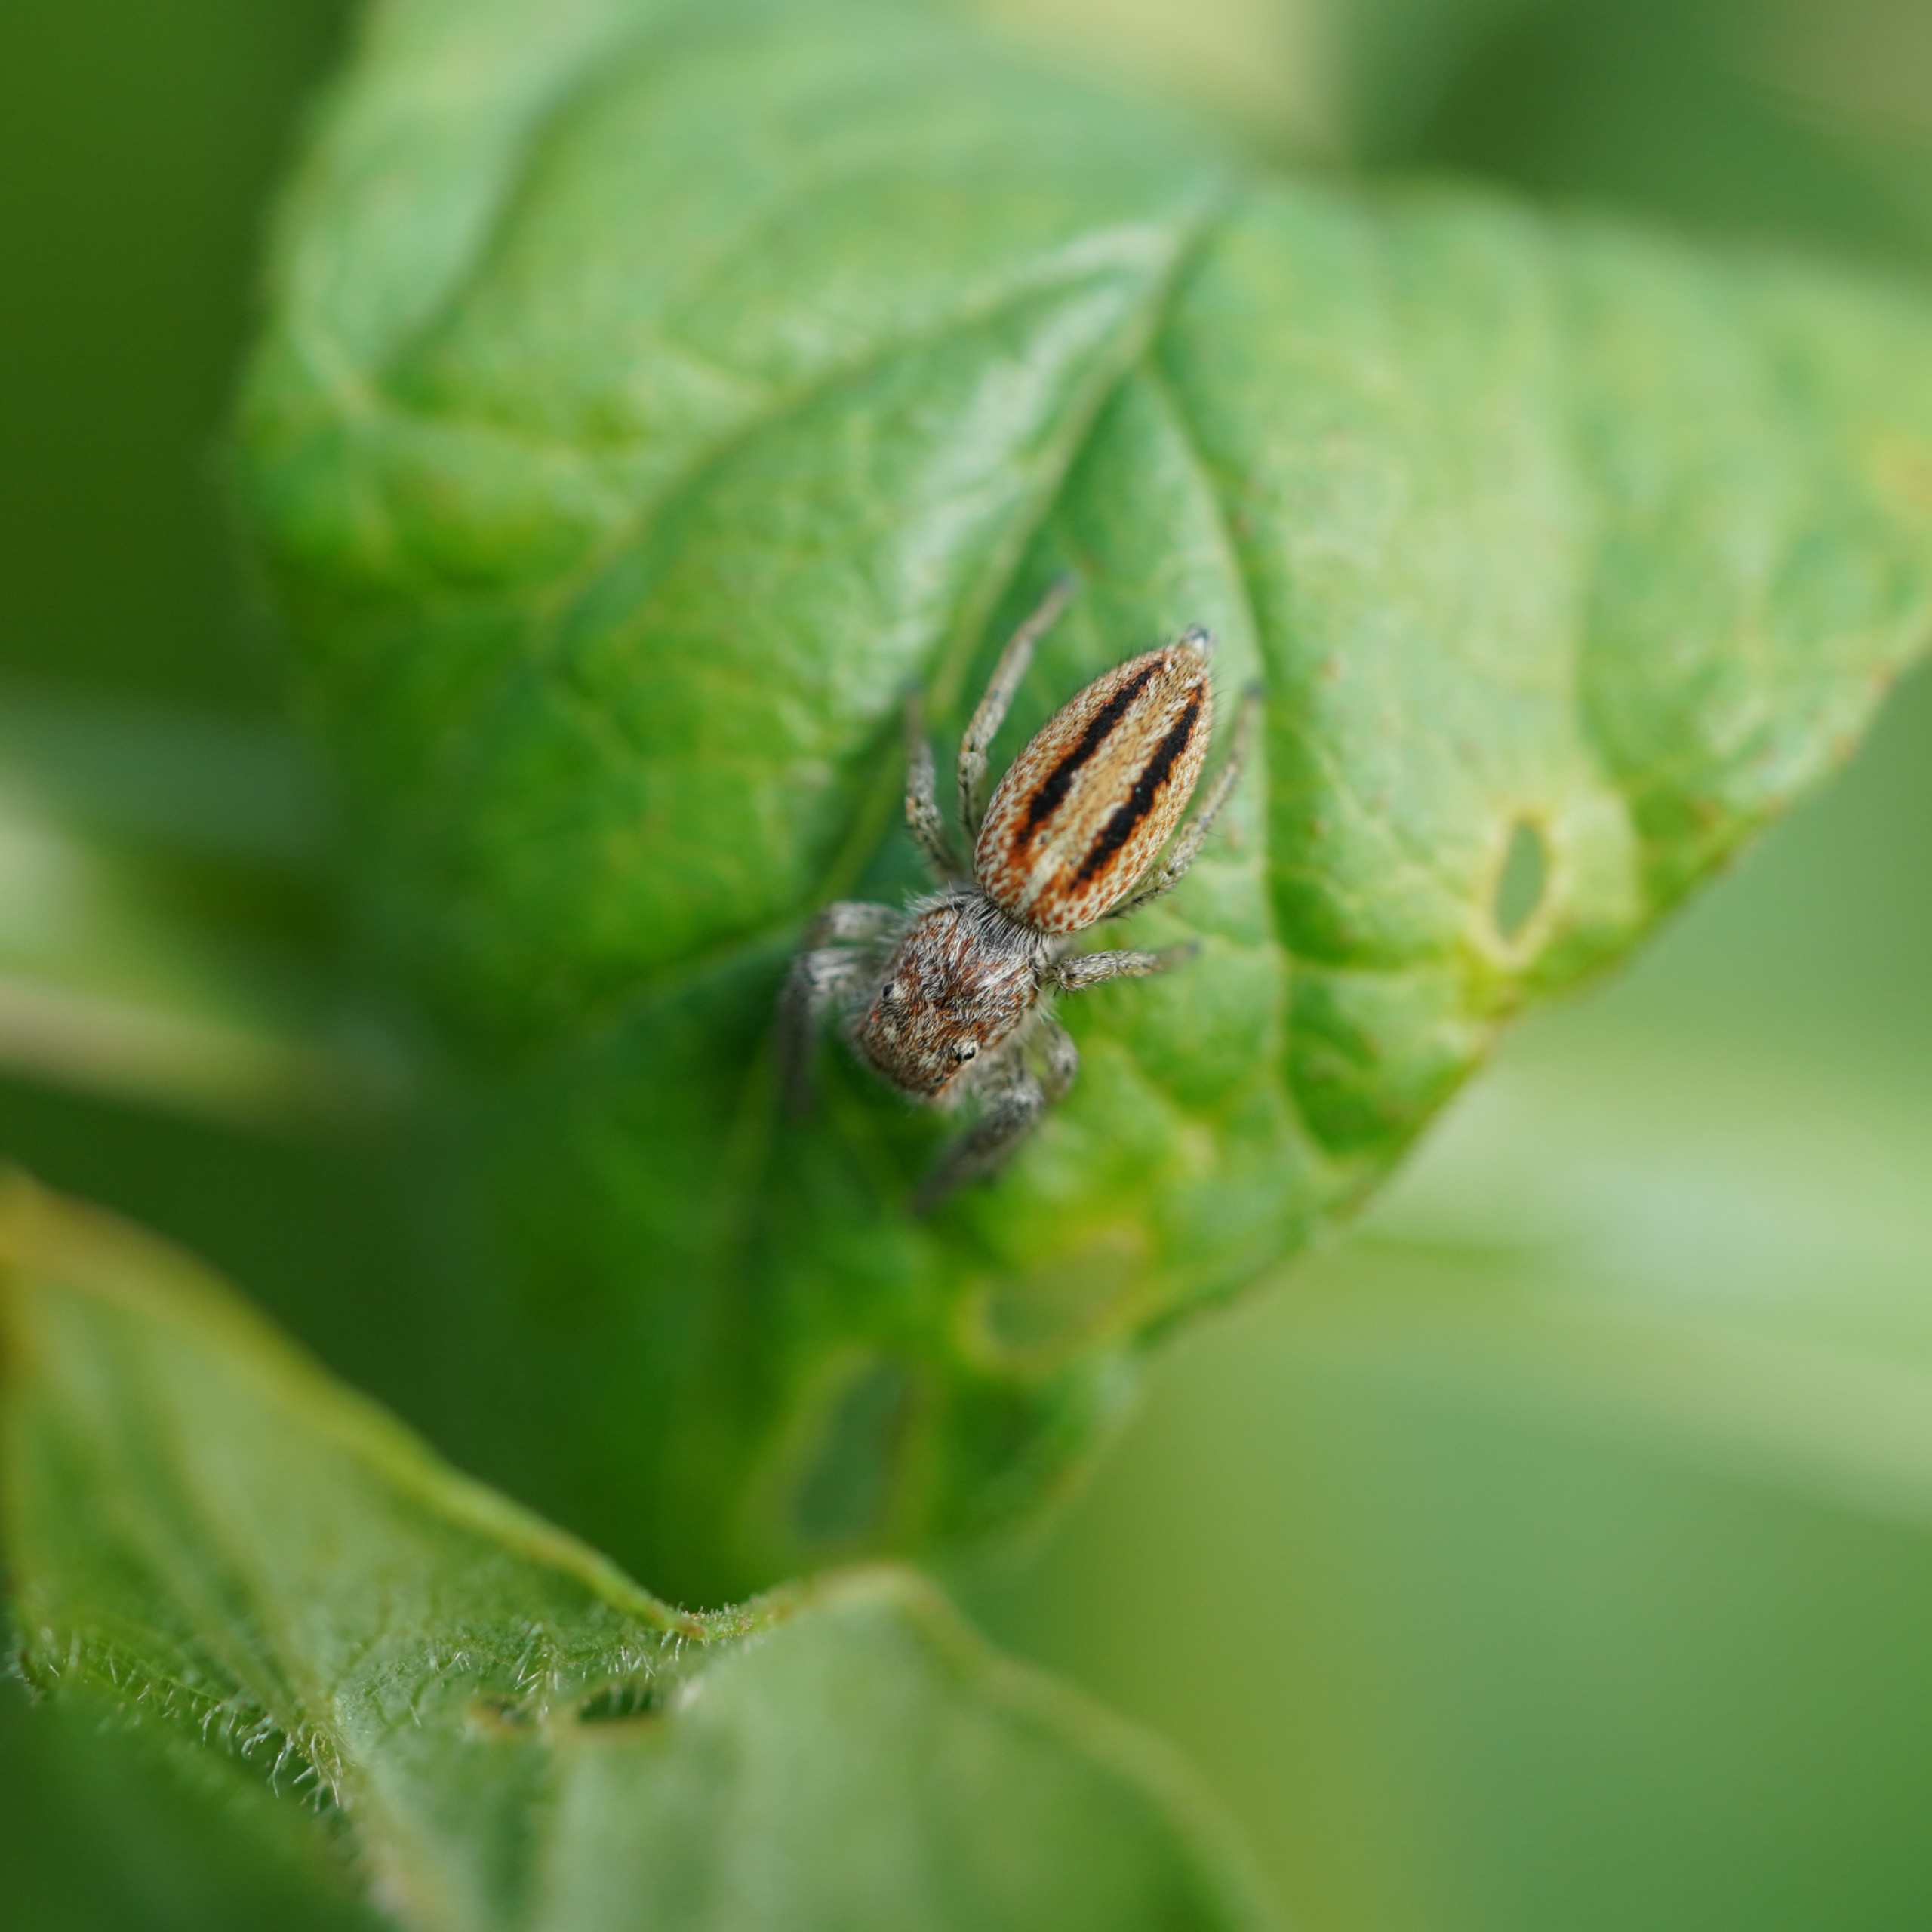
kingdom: Animalia
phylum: Arthropoda
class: Arachnida
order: Araneae
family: Salticidae
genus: Marpissa
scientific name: Marpissa radiata
